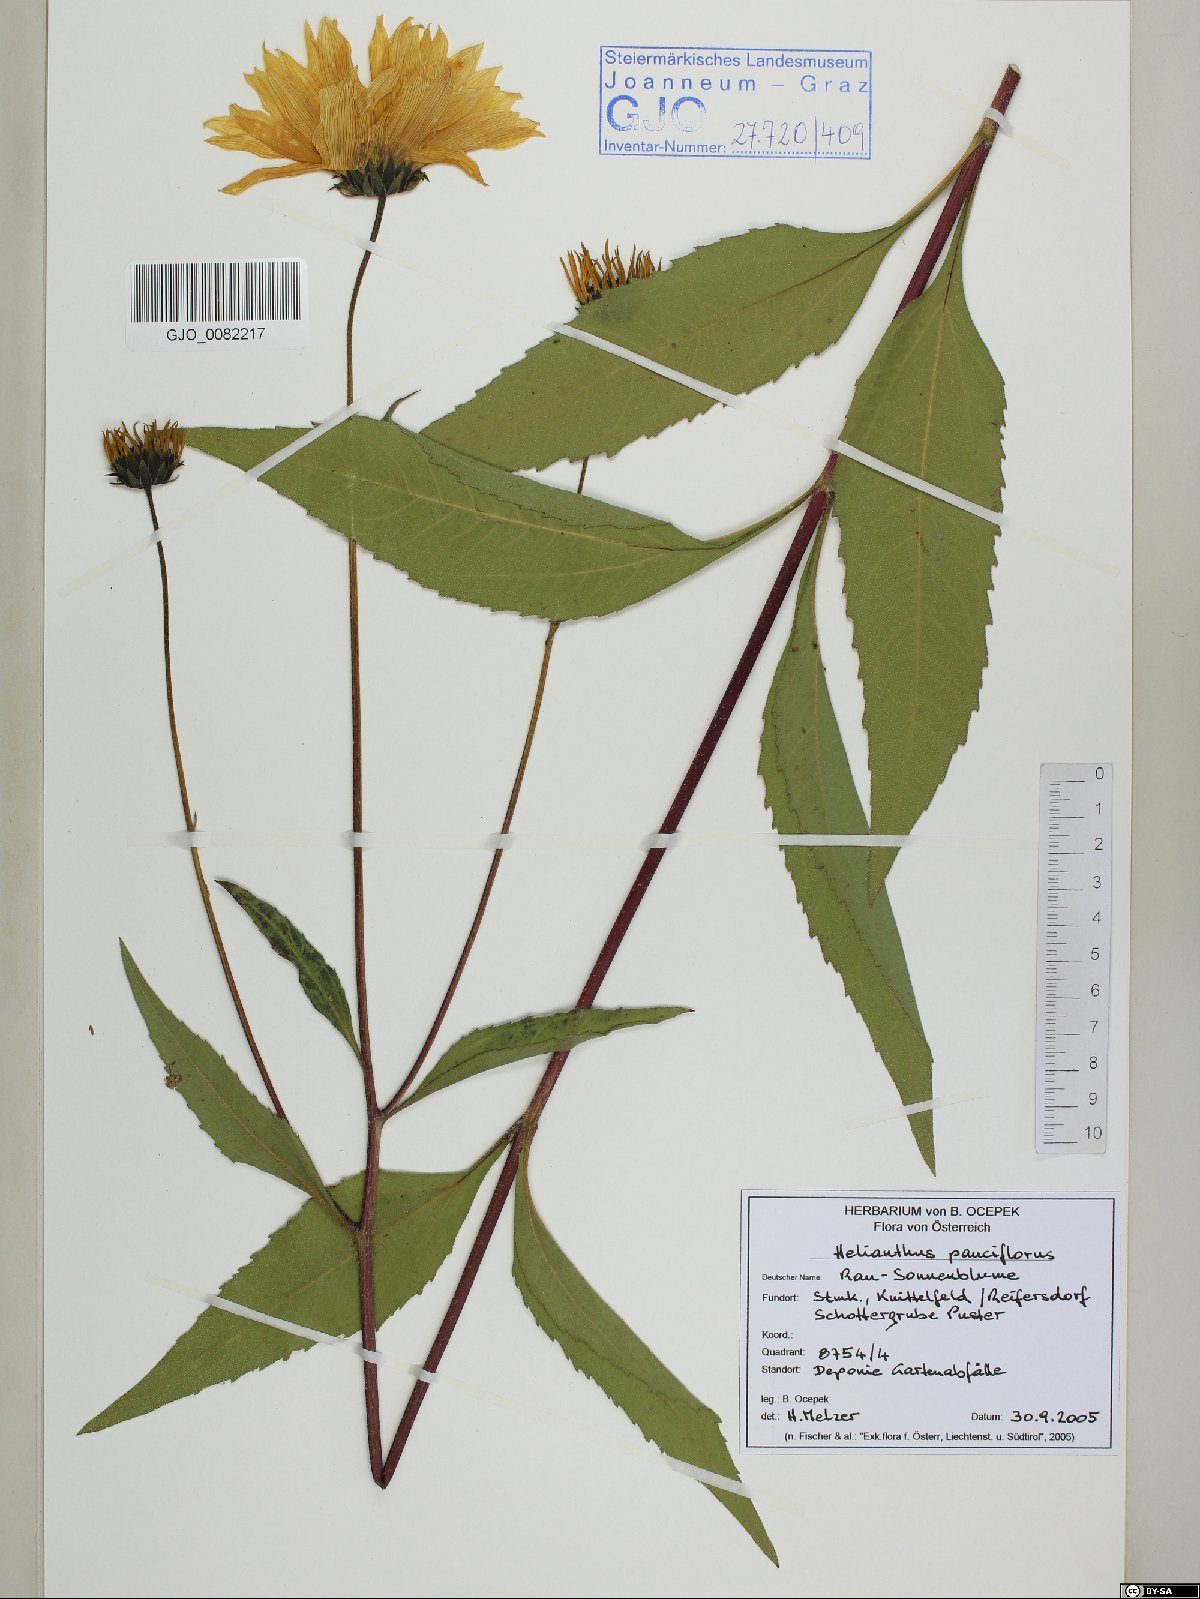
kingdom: Plantae
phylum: Tracheophyta
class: Magnoliopsida
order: Asterales
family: Asteraceae
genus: Helianthus
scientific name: Helianthus pauciflorus
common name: Stiff sunflower
